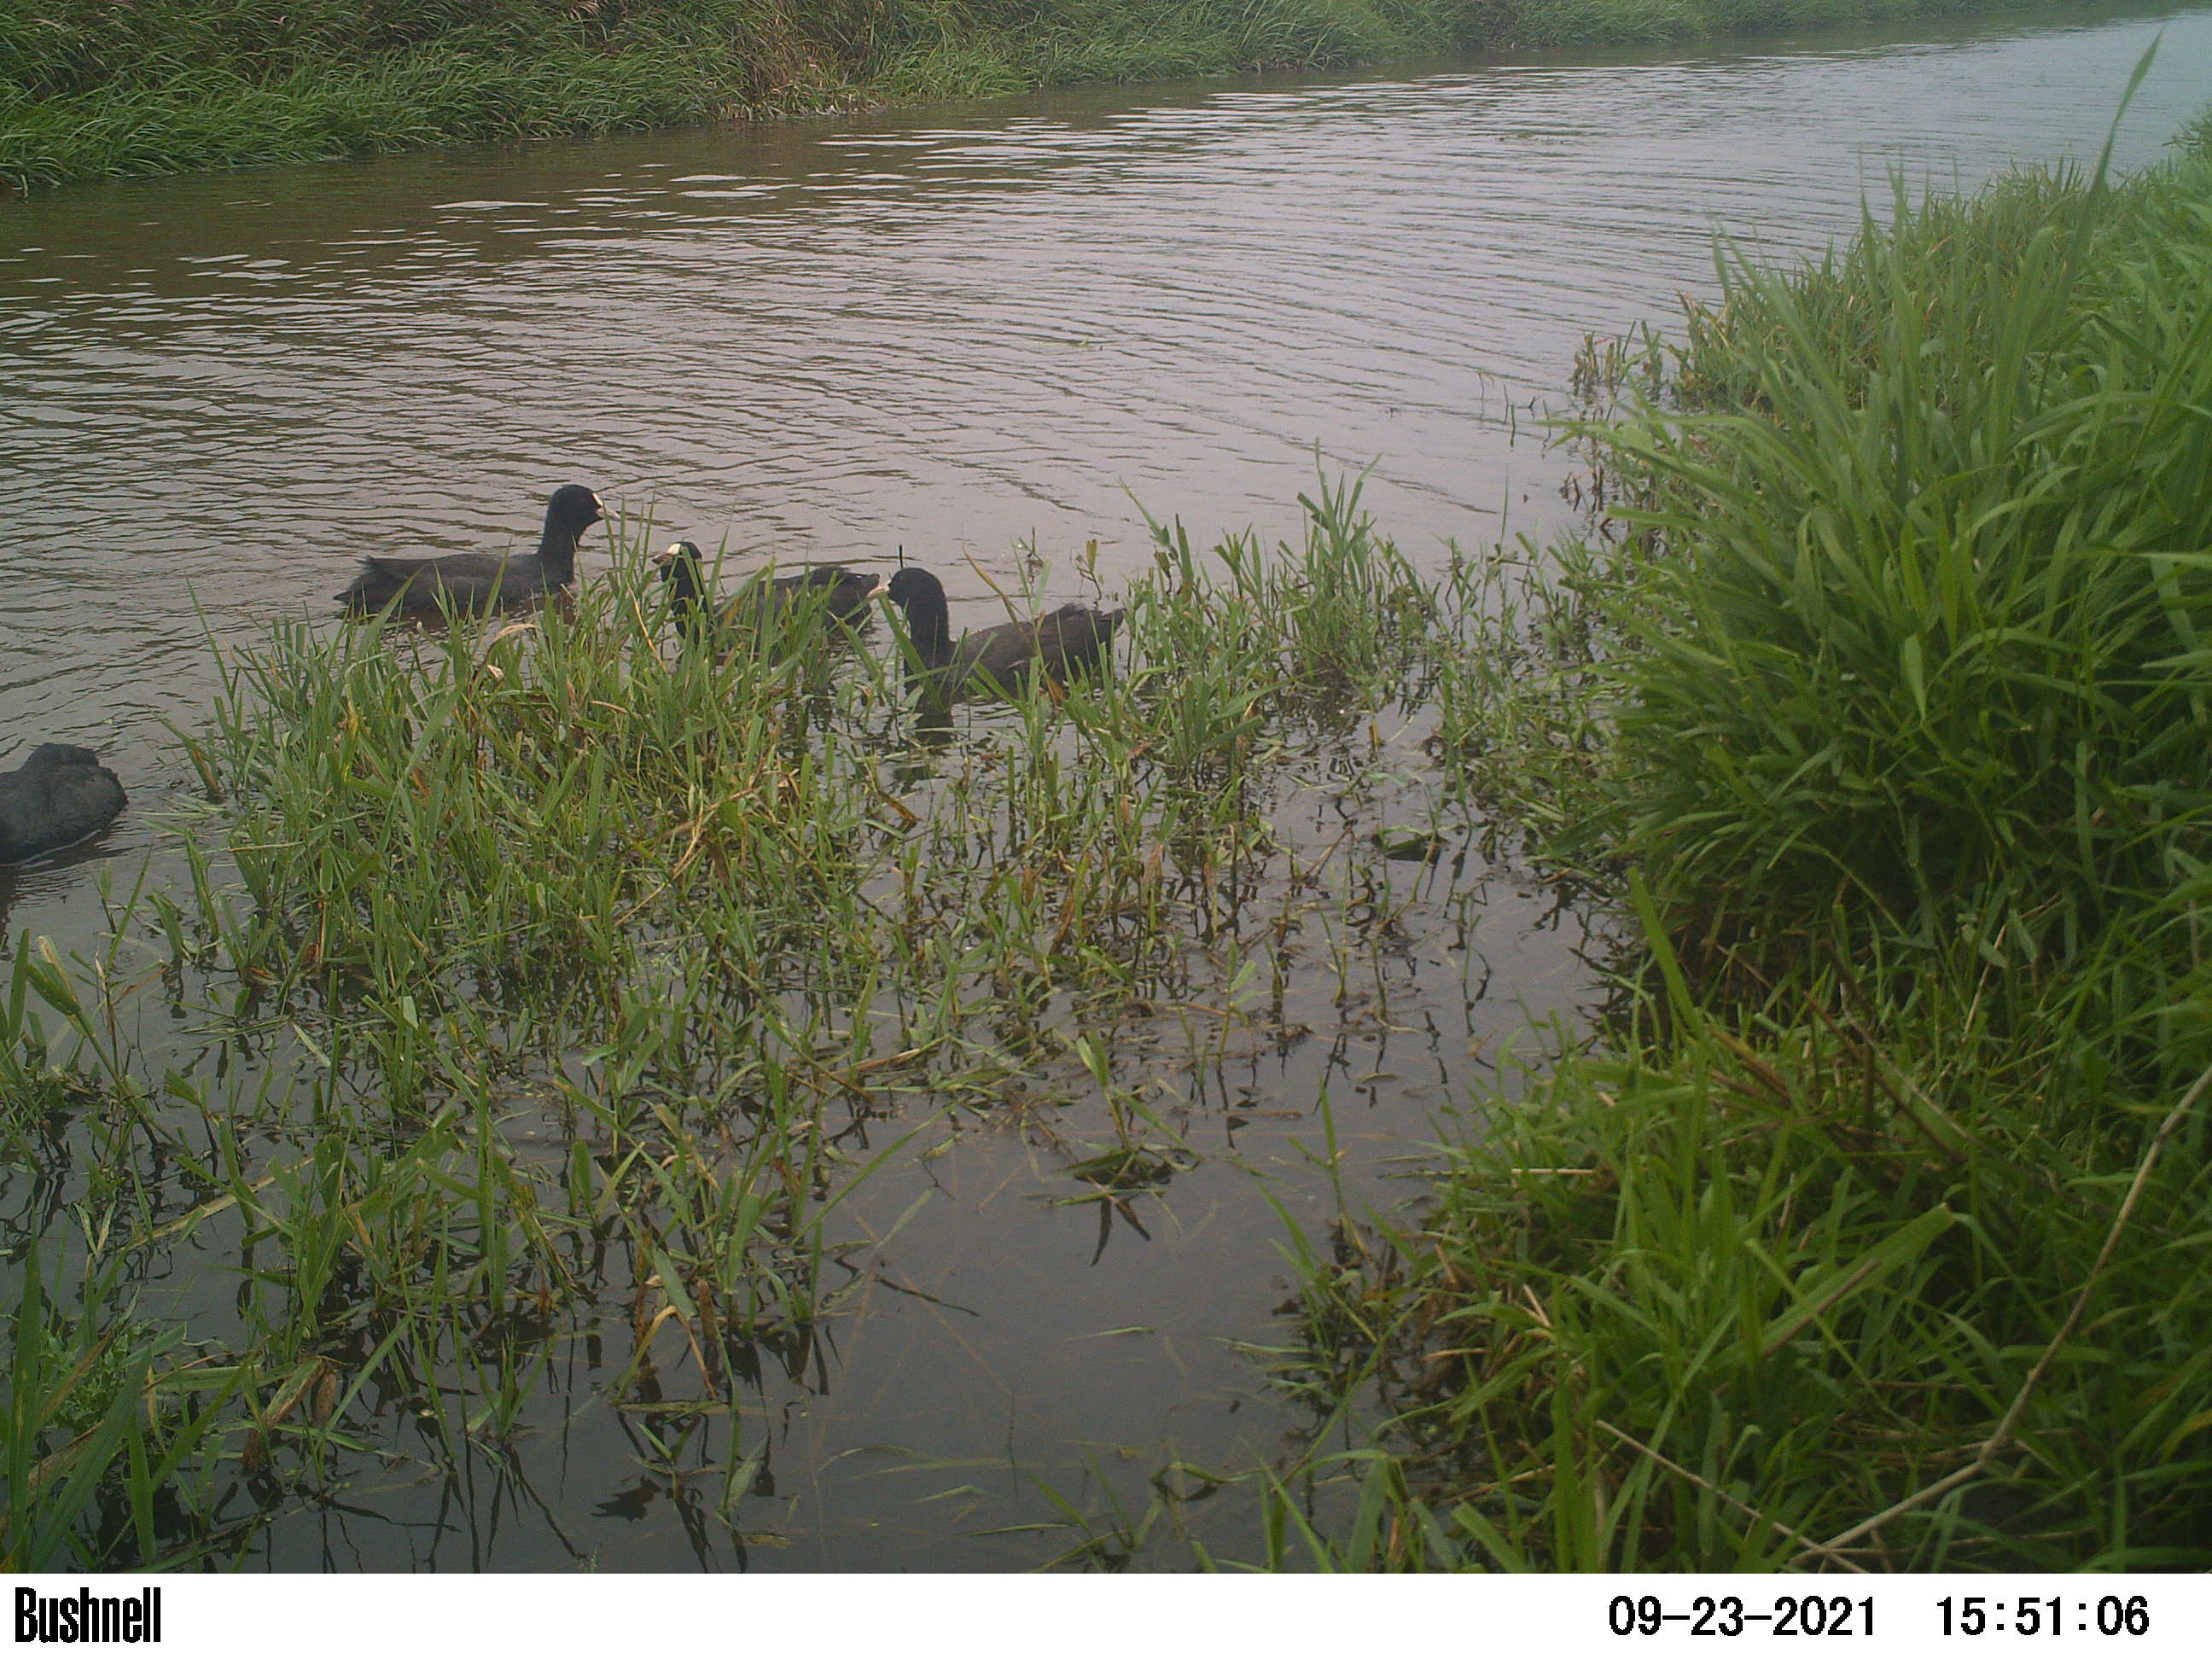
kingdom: Animalia
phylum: Chordata
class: Aves
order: Gruiformes
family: Rallidae
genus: Fulica
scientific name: Fulica atra
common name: Eurasian coot
